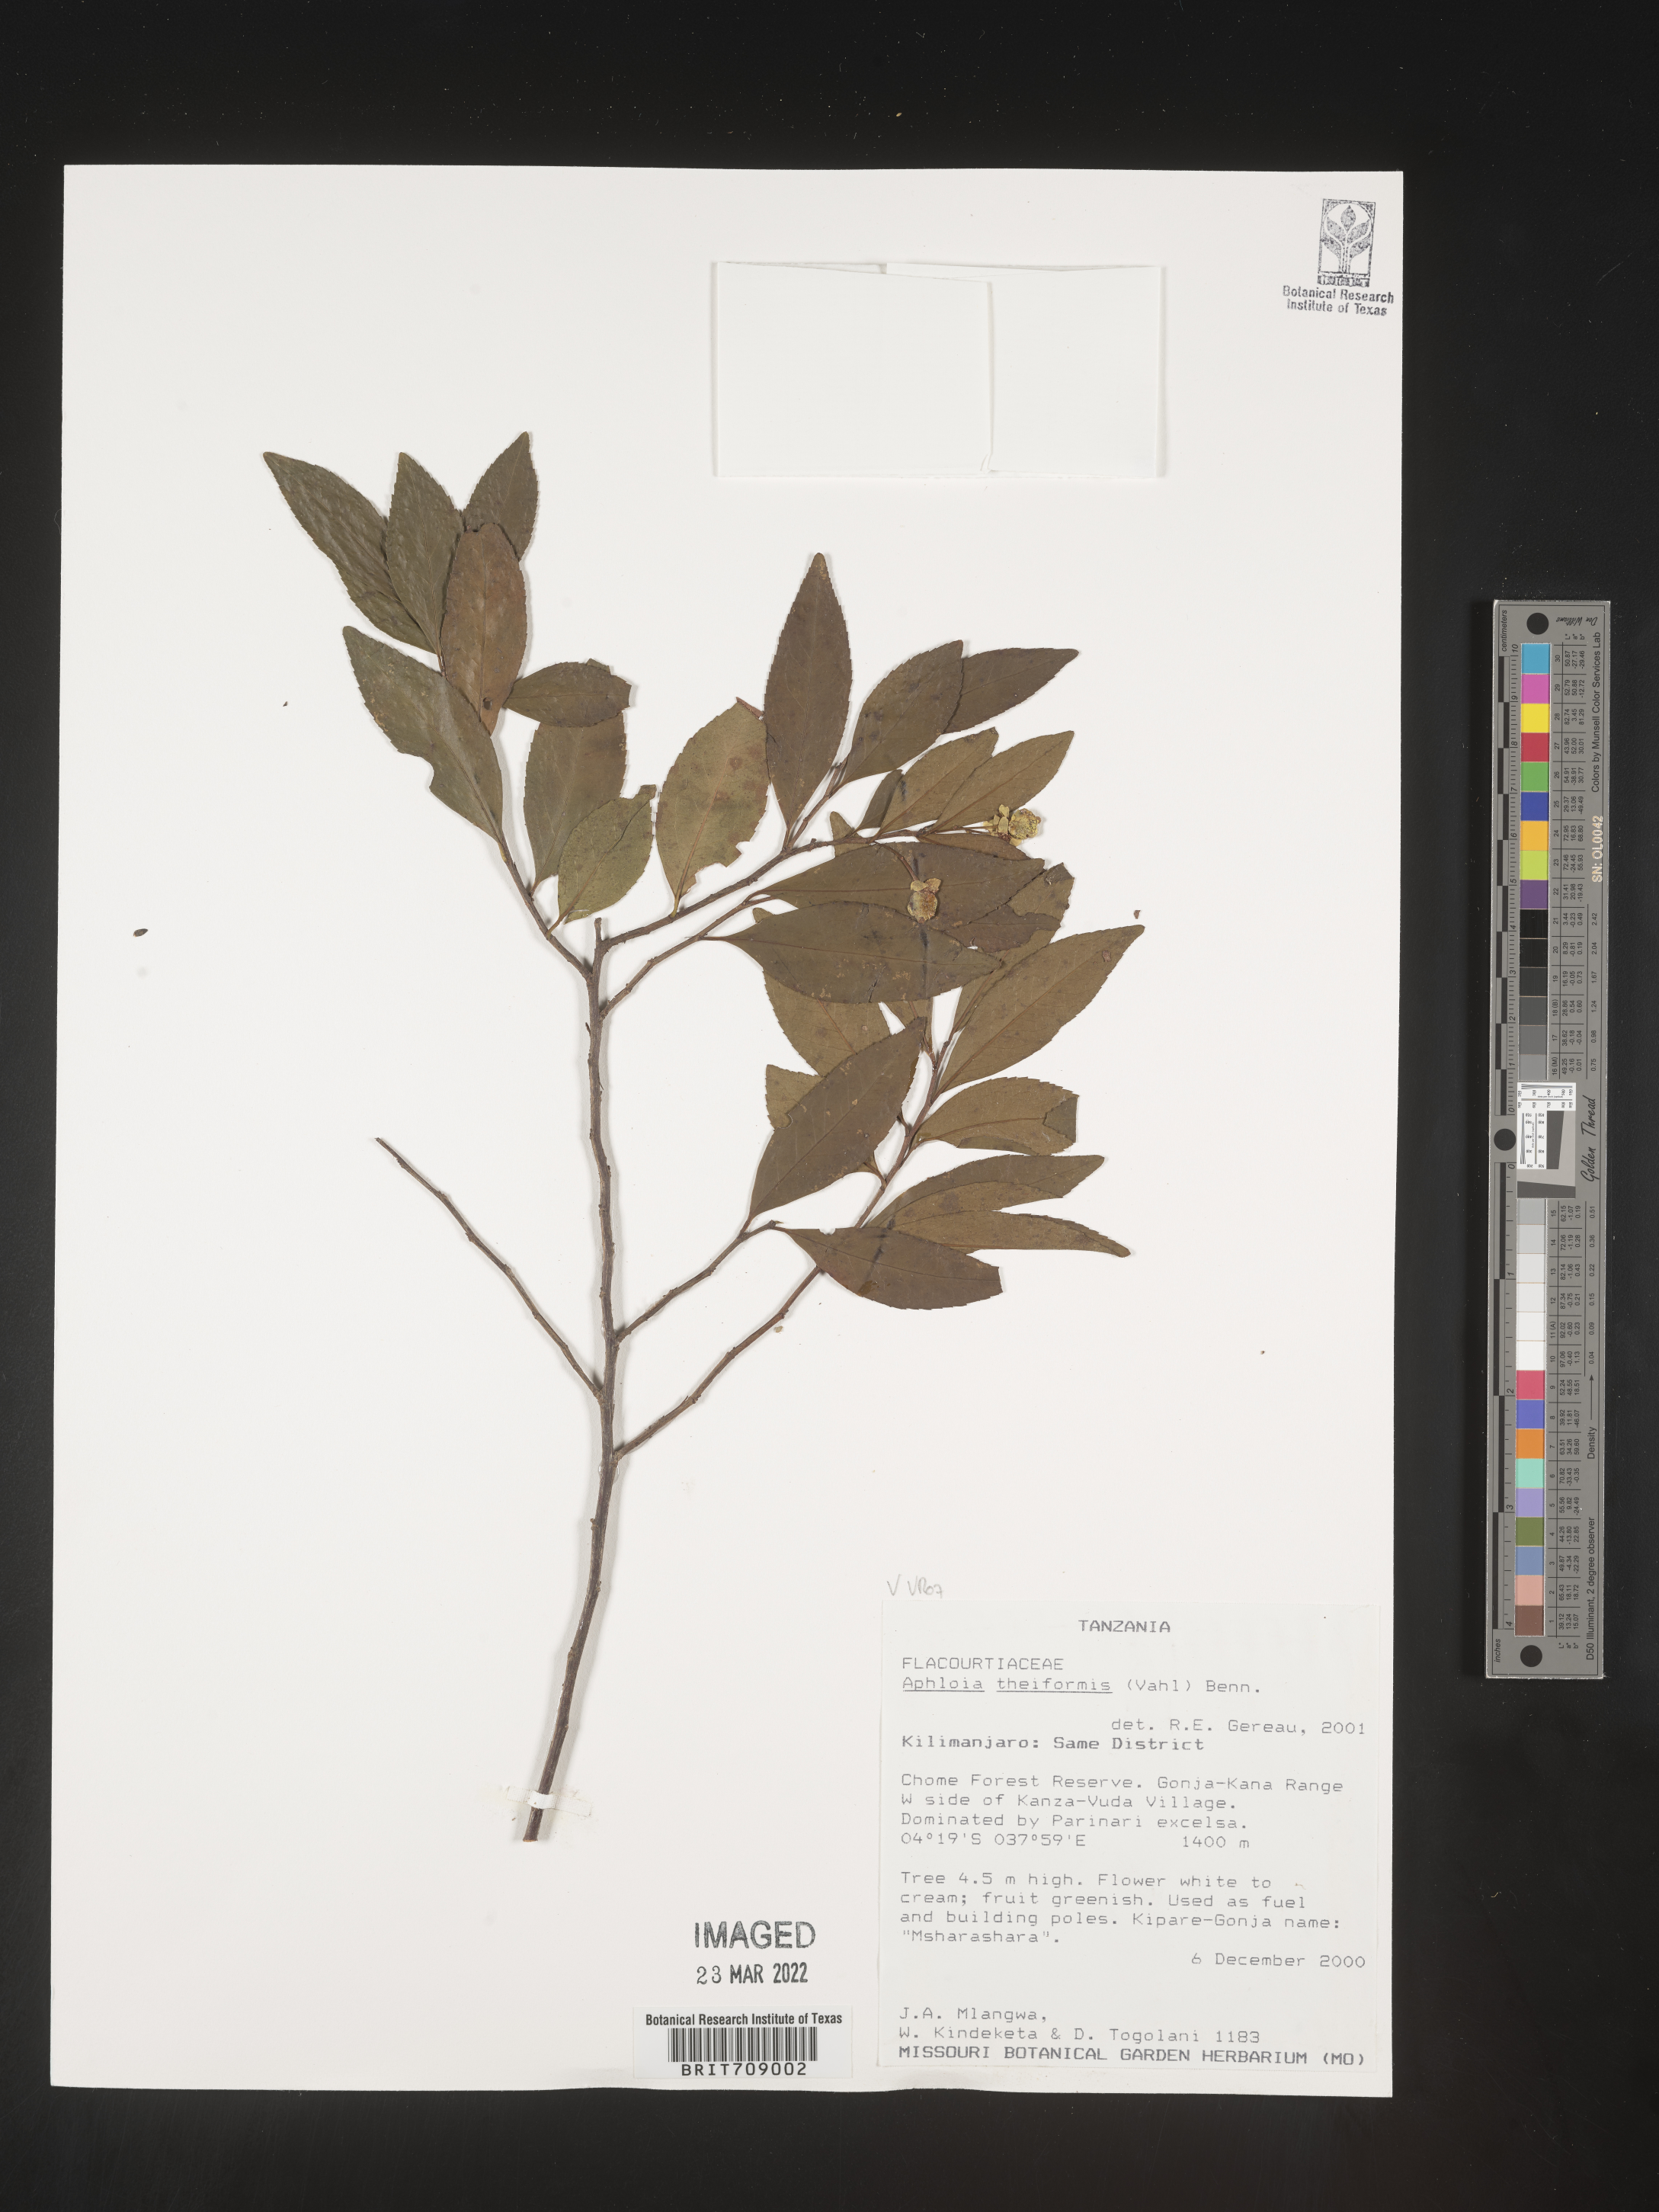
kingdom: Plantae
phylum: Tracheophyta
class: Magnoliopsida
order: Crossosomatales
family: Aphloiaceae
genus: Aphloia
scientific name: Aphloia
